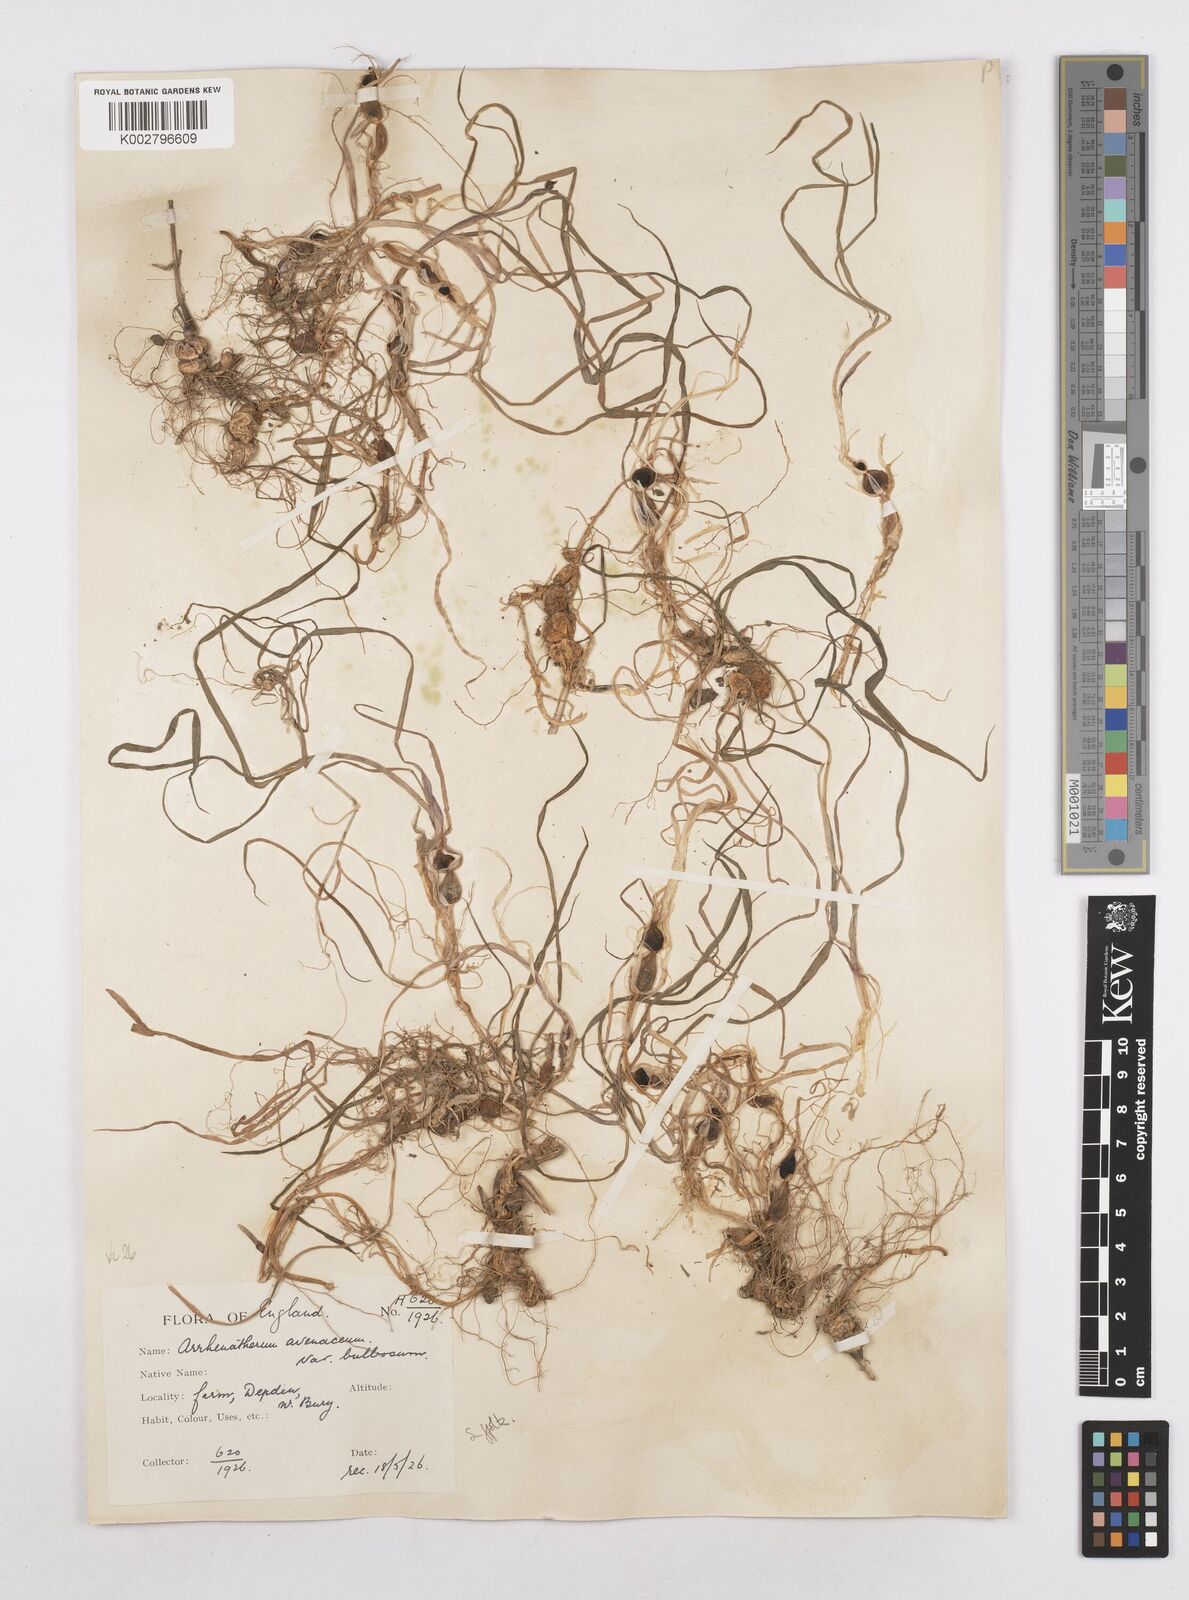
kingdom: Plantae
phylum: Tracheophyta
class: Liliopsida
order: Poales
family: Poaceae
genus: Arrhenatherum
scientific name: Arrhenatherum elatius
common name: Tall oatgrass
